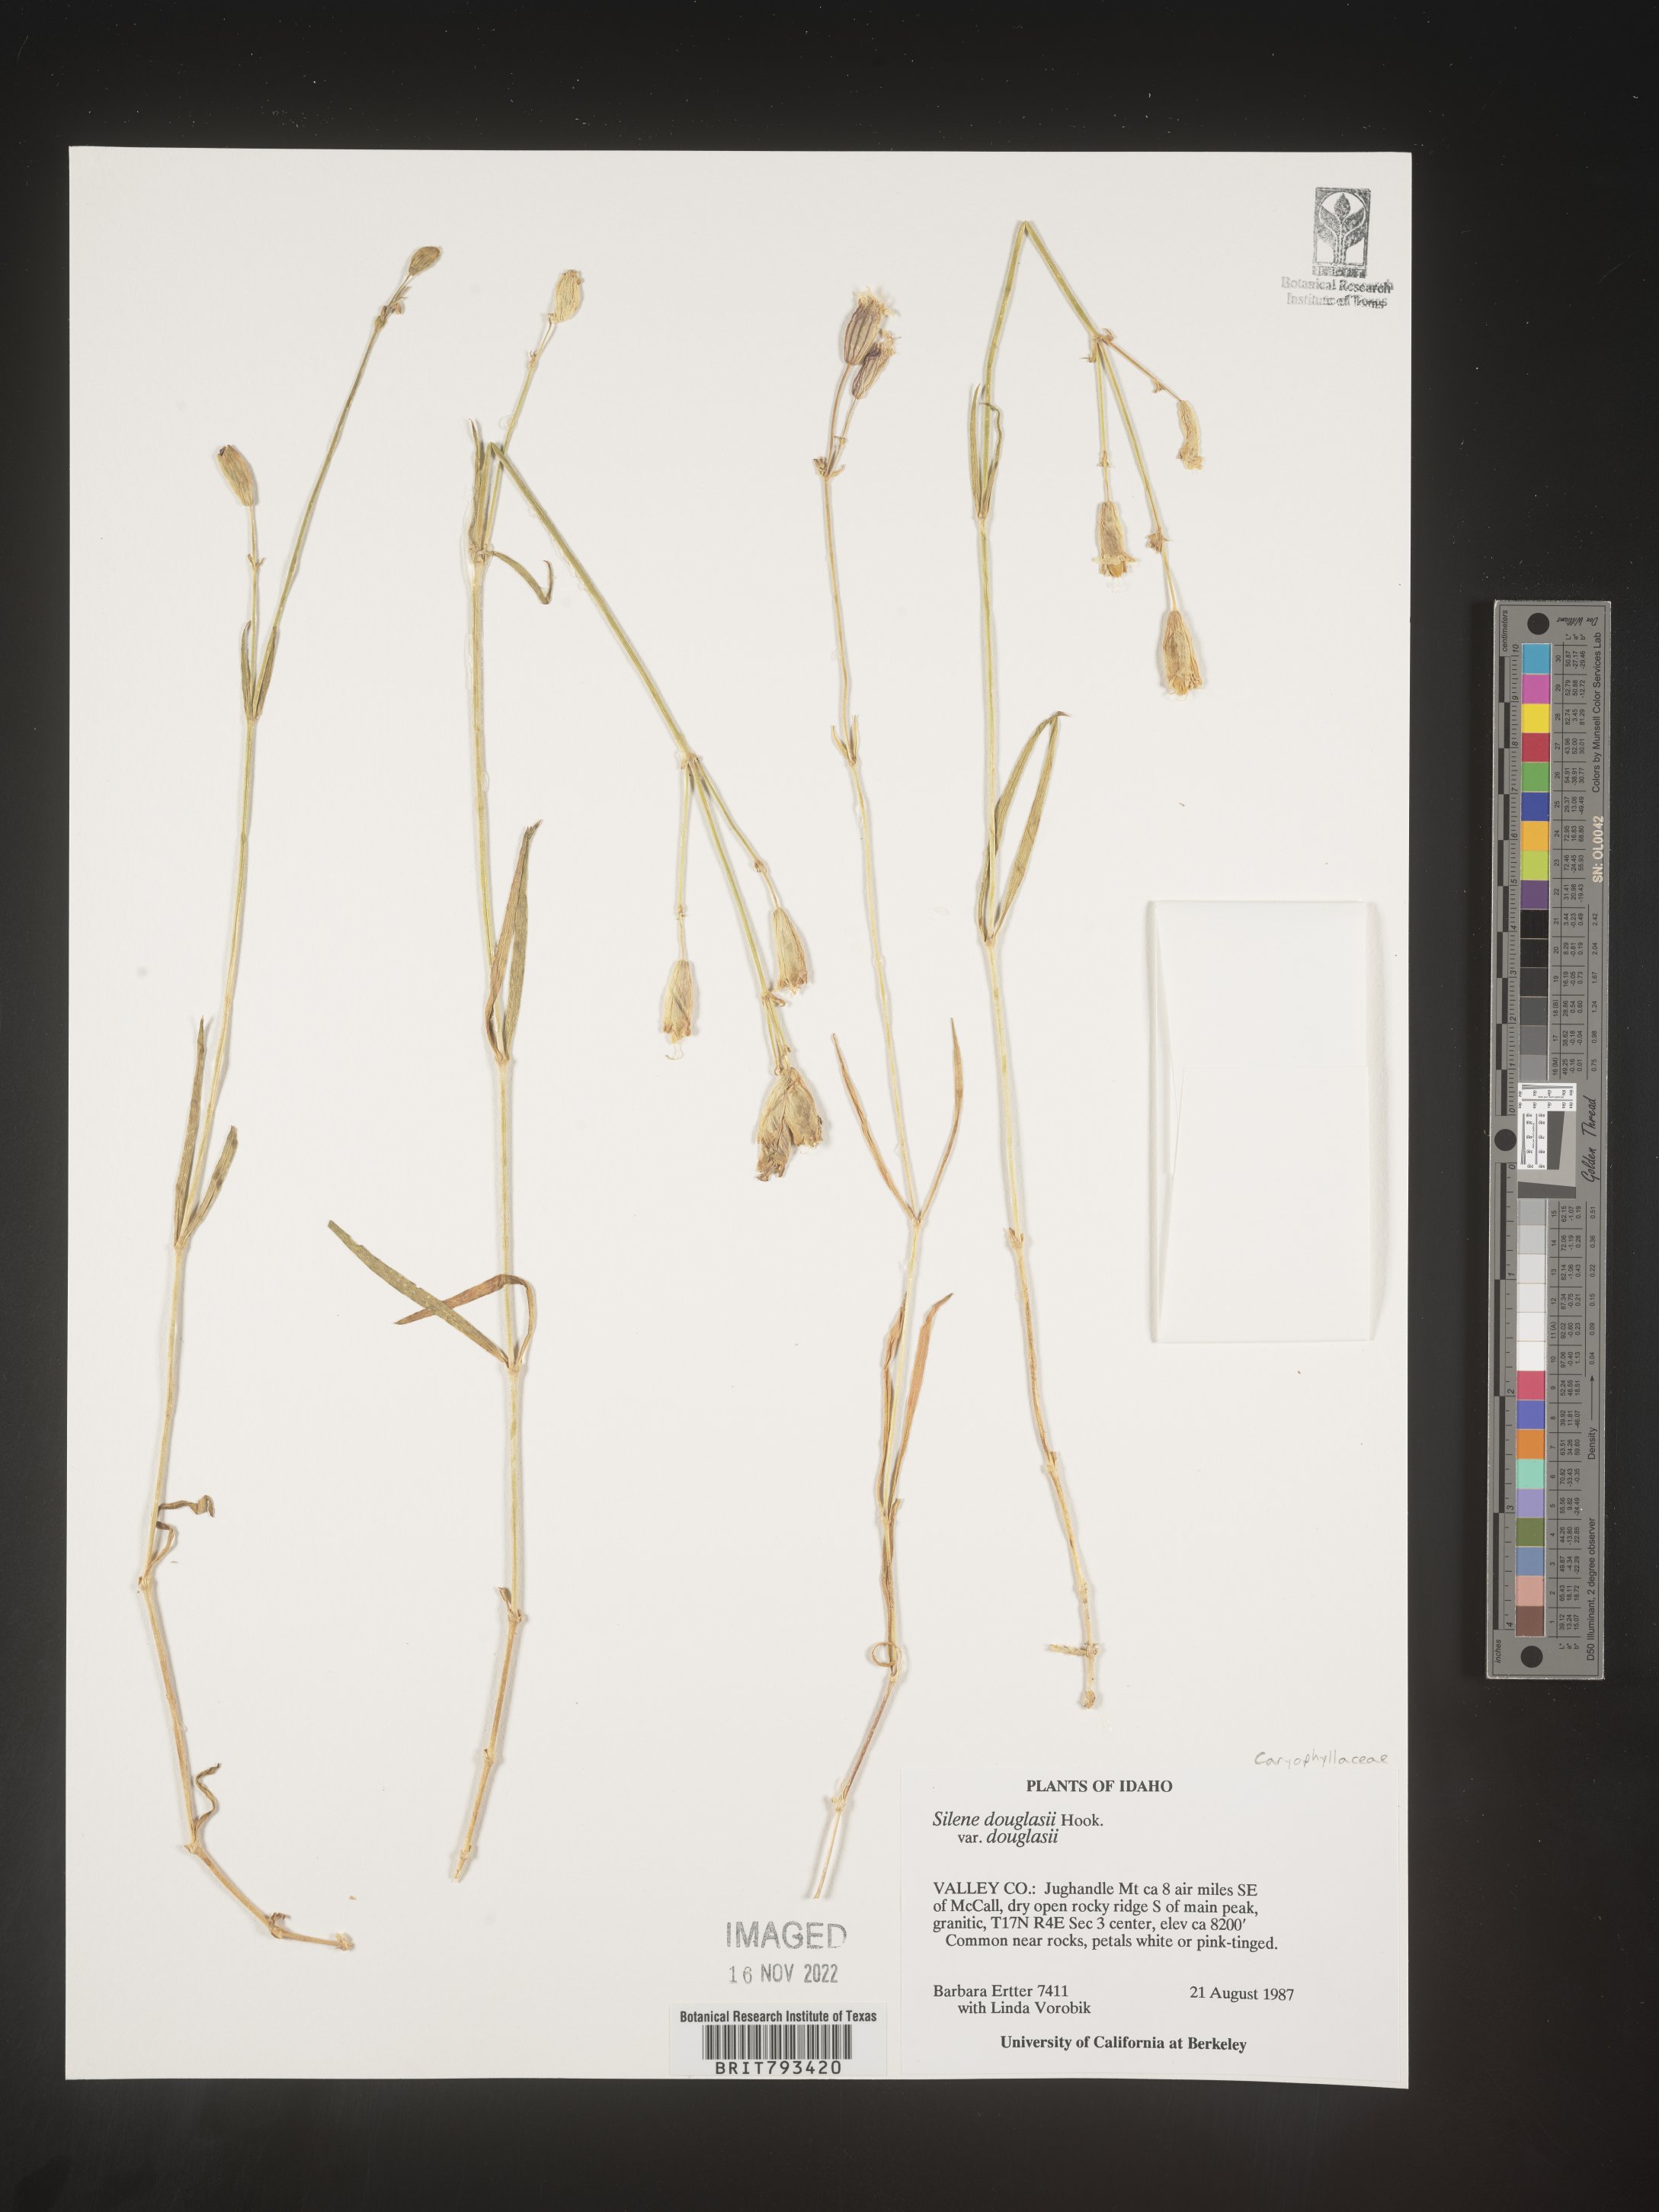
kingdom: Plantae
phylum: Tracheophyta
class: Magnoliopsida
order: Caryophyllales
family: Caryophyllaceae
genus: Silene
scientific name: Silene douglasii
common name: Douglas's catchfly
